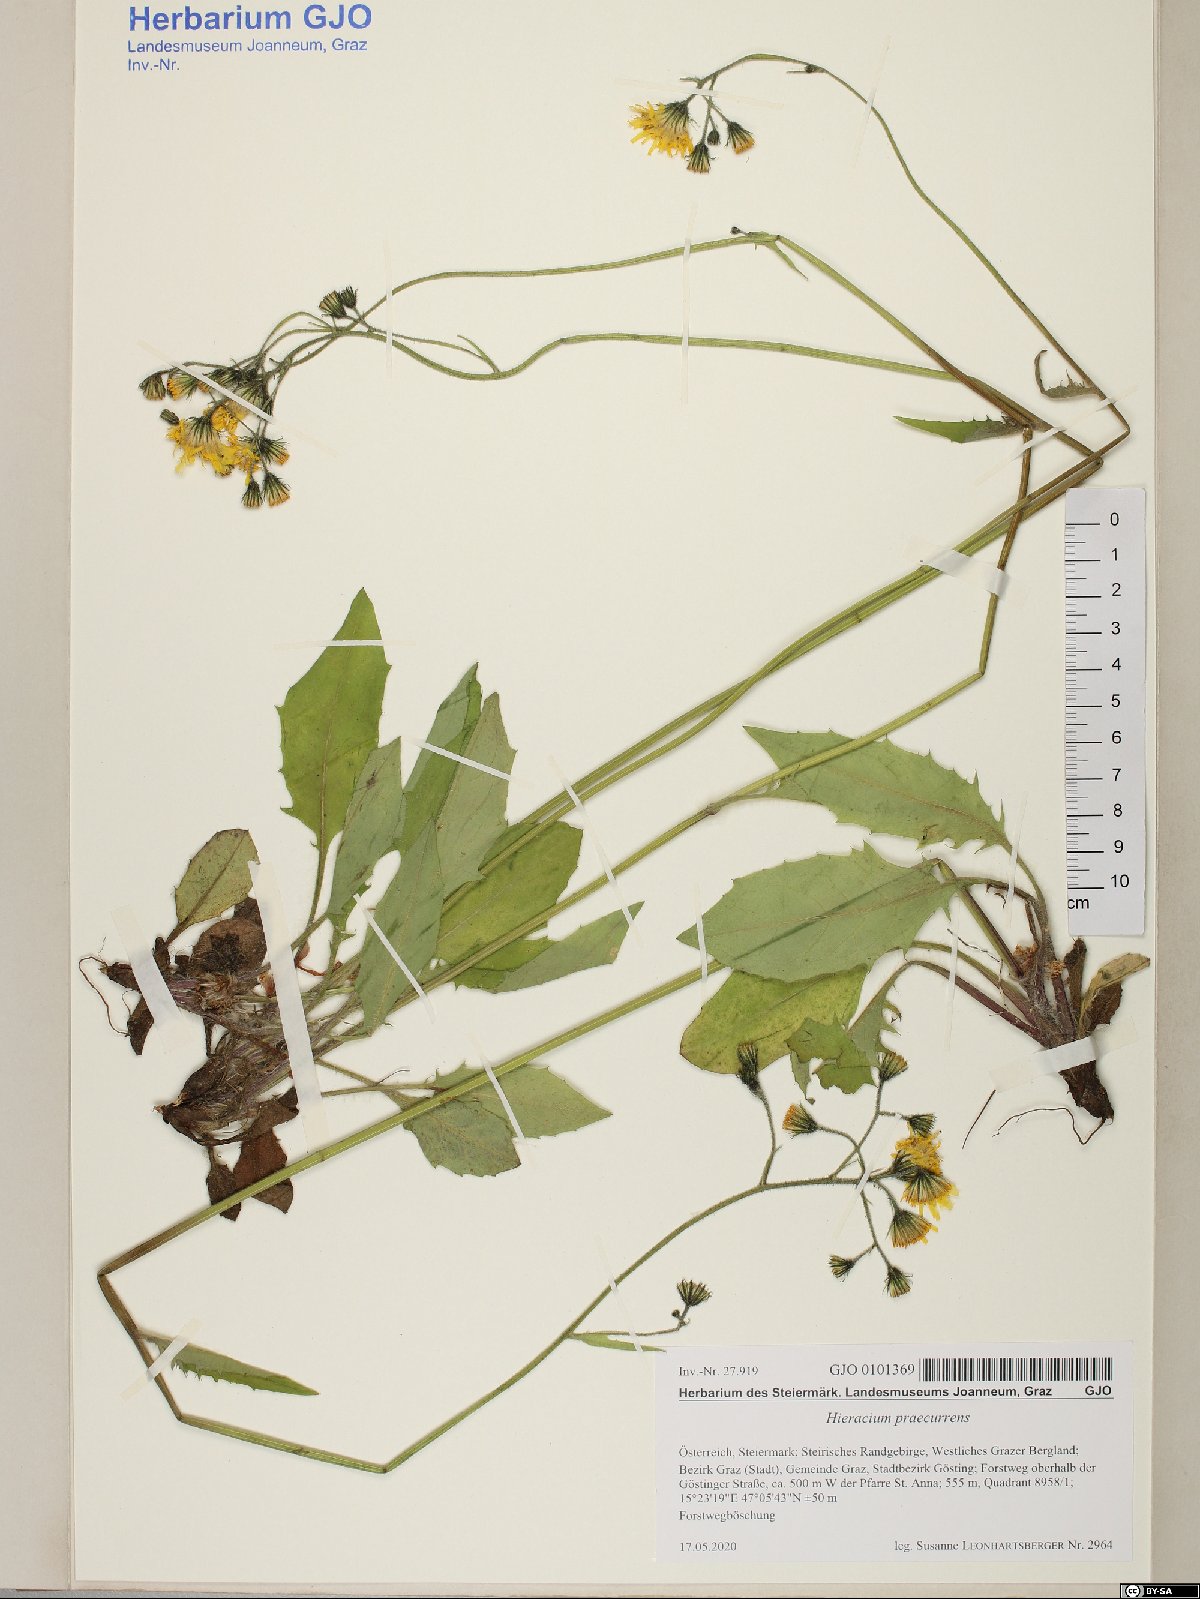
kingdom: Plantae
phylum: Tracheophyta
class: Magnoliopsida
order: Asterales
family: Asteraceae
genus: Hieracium
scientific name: Hieracium rotundatum
